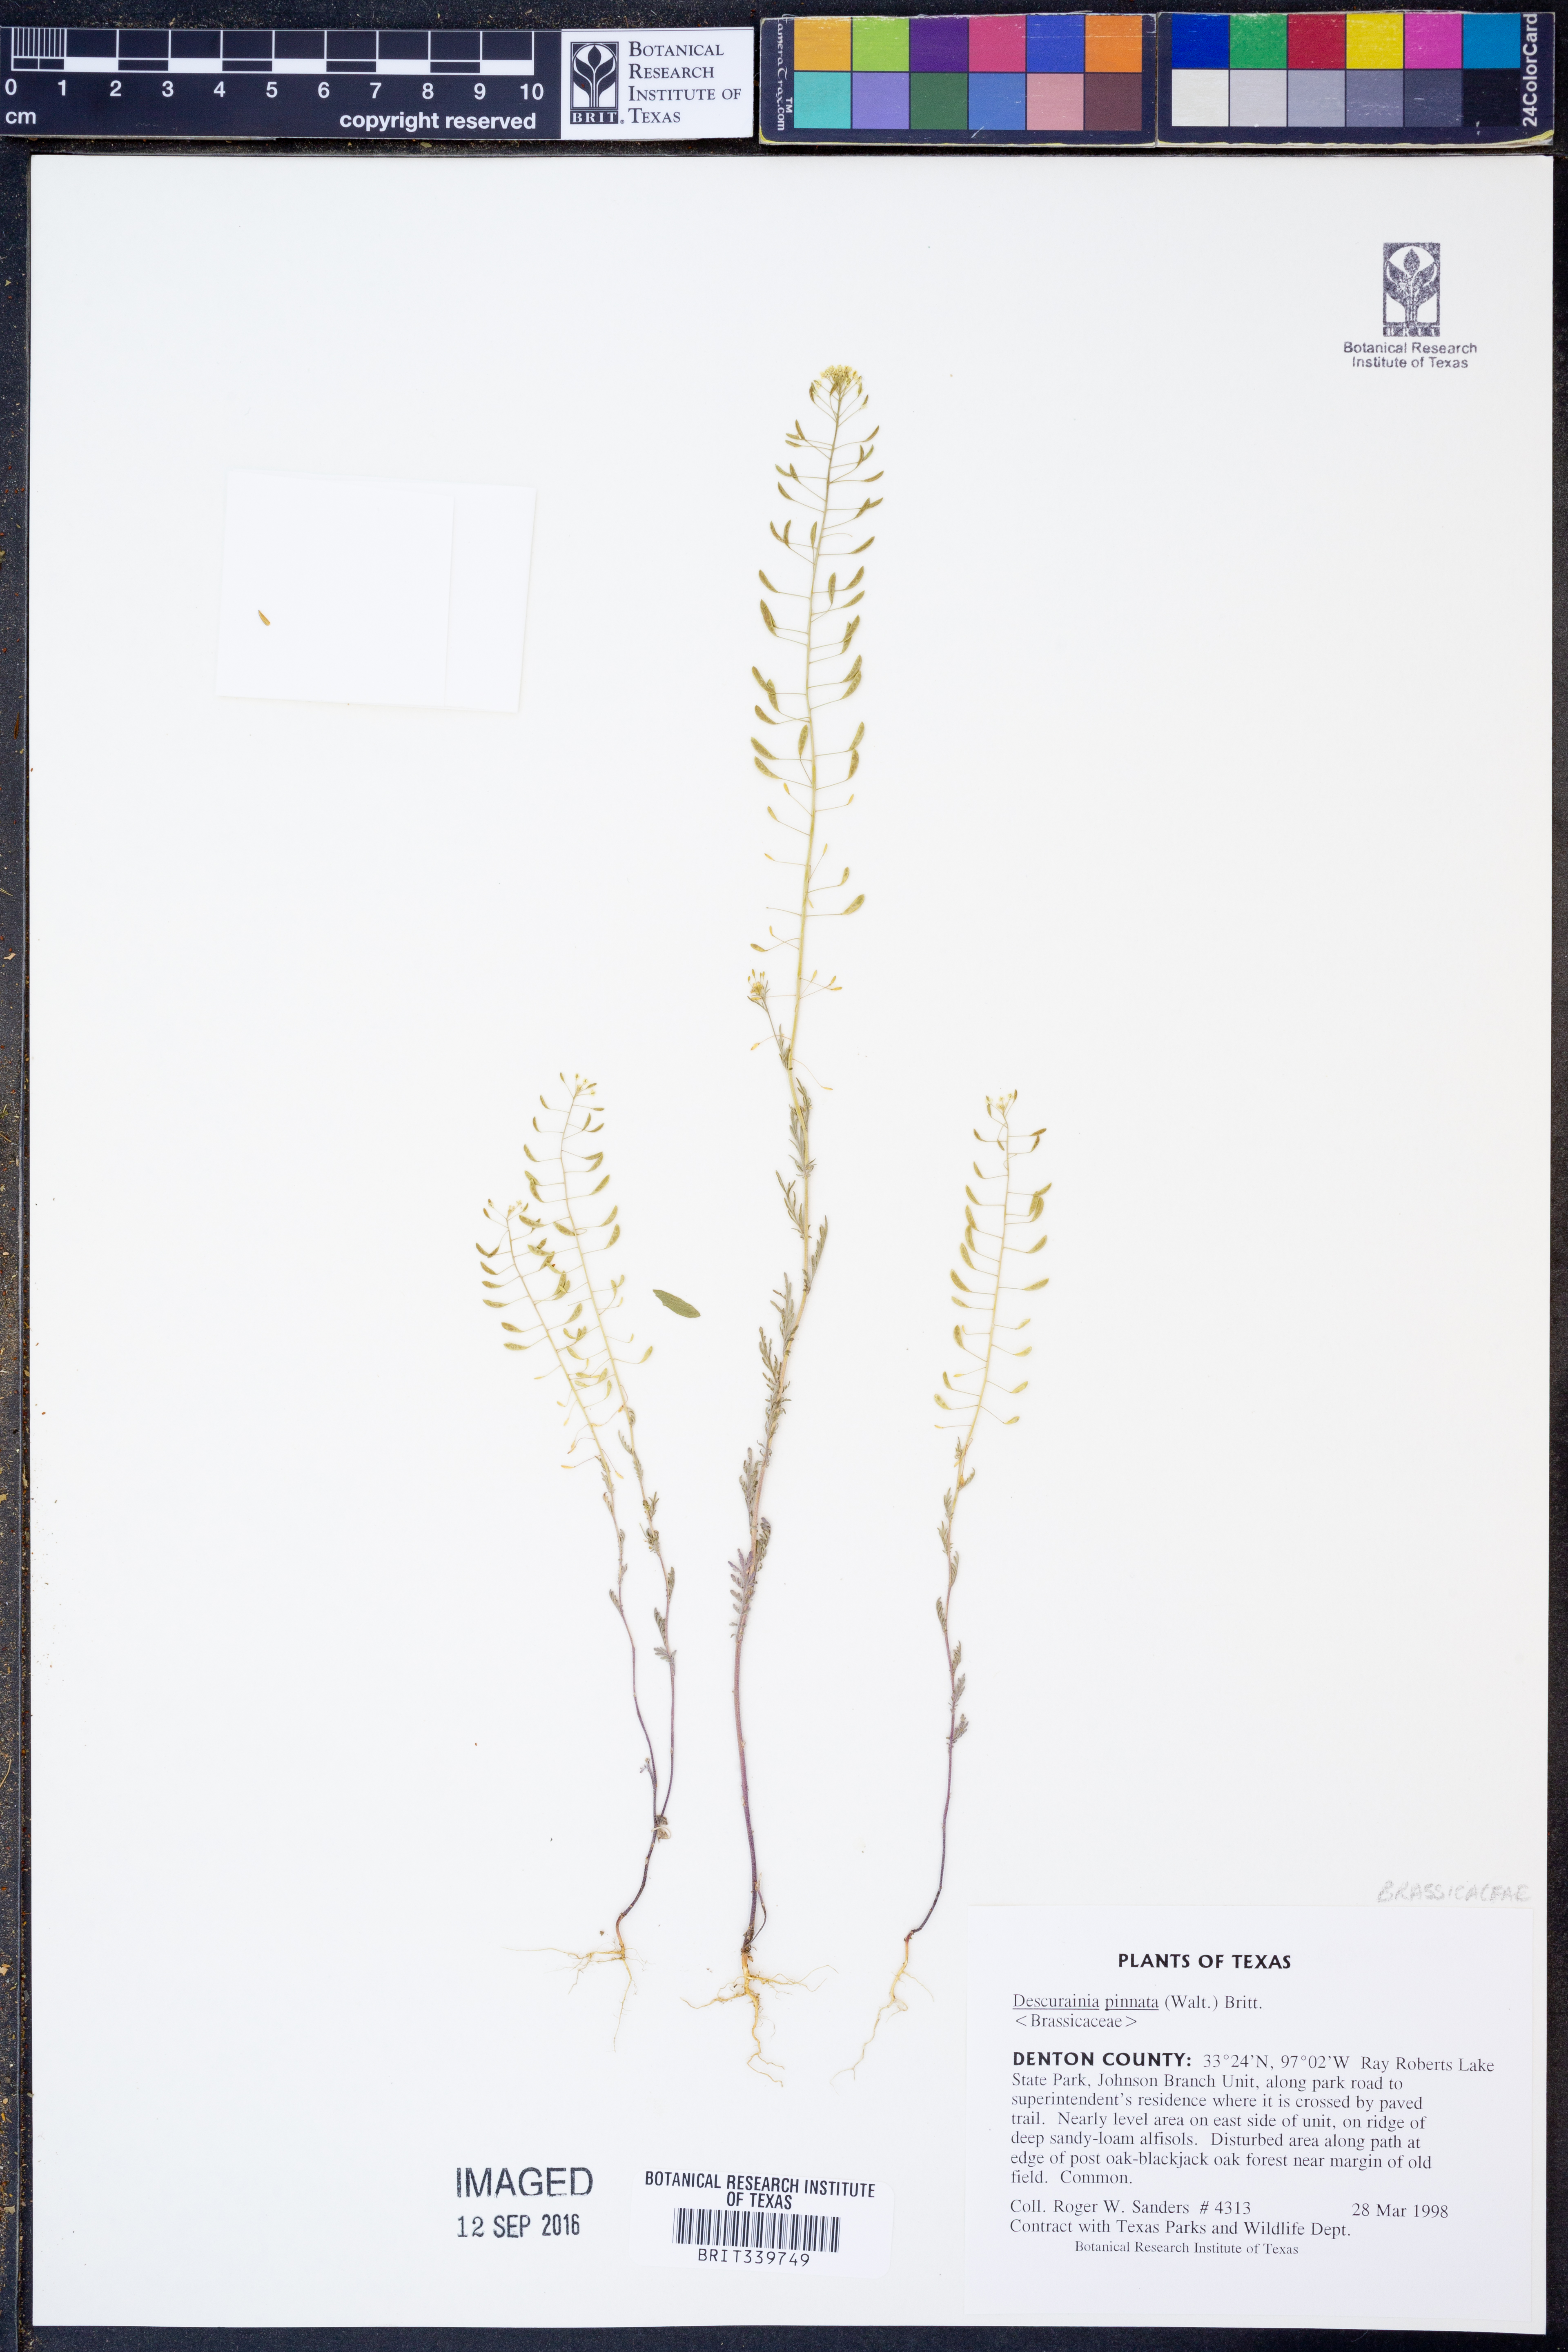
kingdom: Plantae
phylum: Tracheophyta
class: Magnoliopsida
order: Brassicales
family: Brassicaceae
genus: Descurainia
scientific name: Descurainia pinnata
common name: Western tansy mustard
